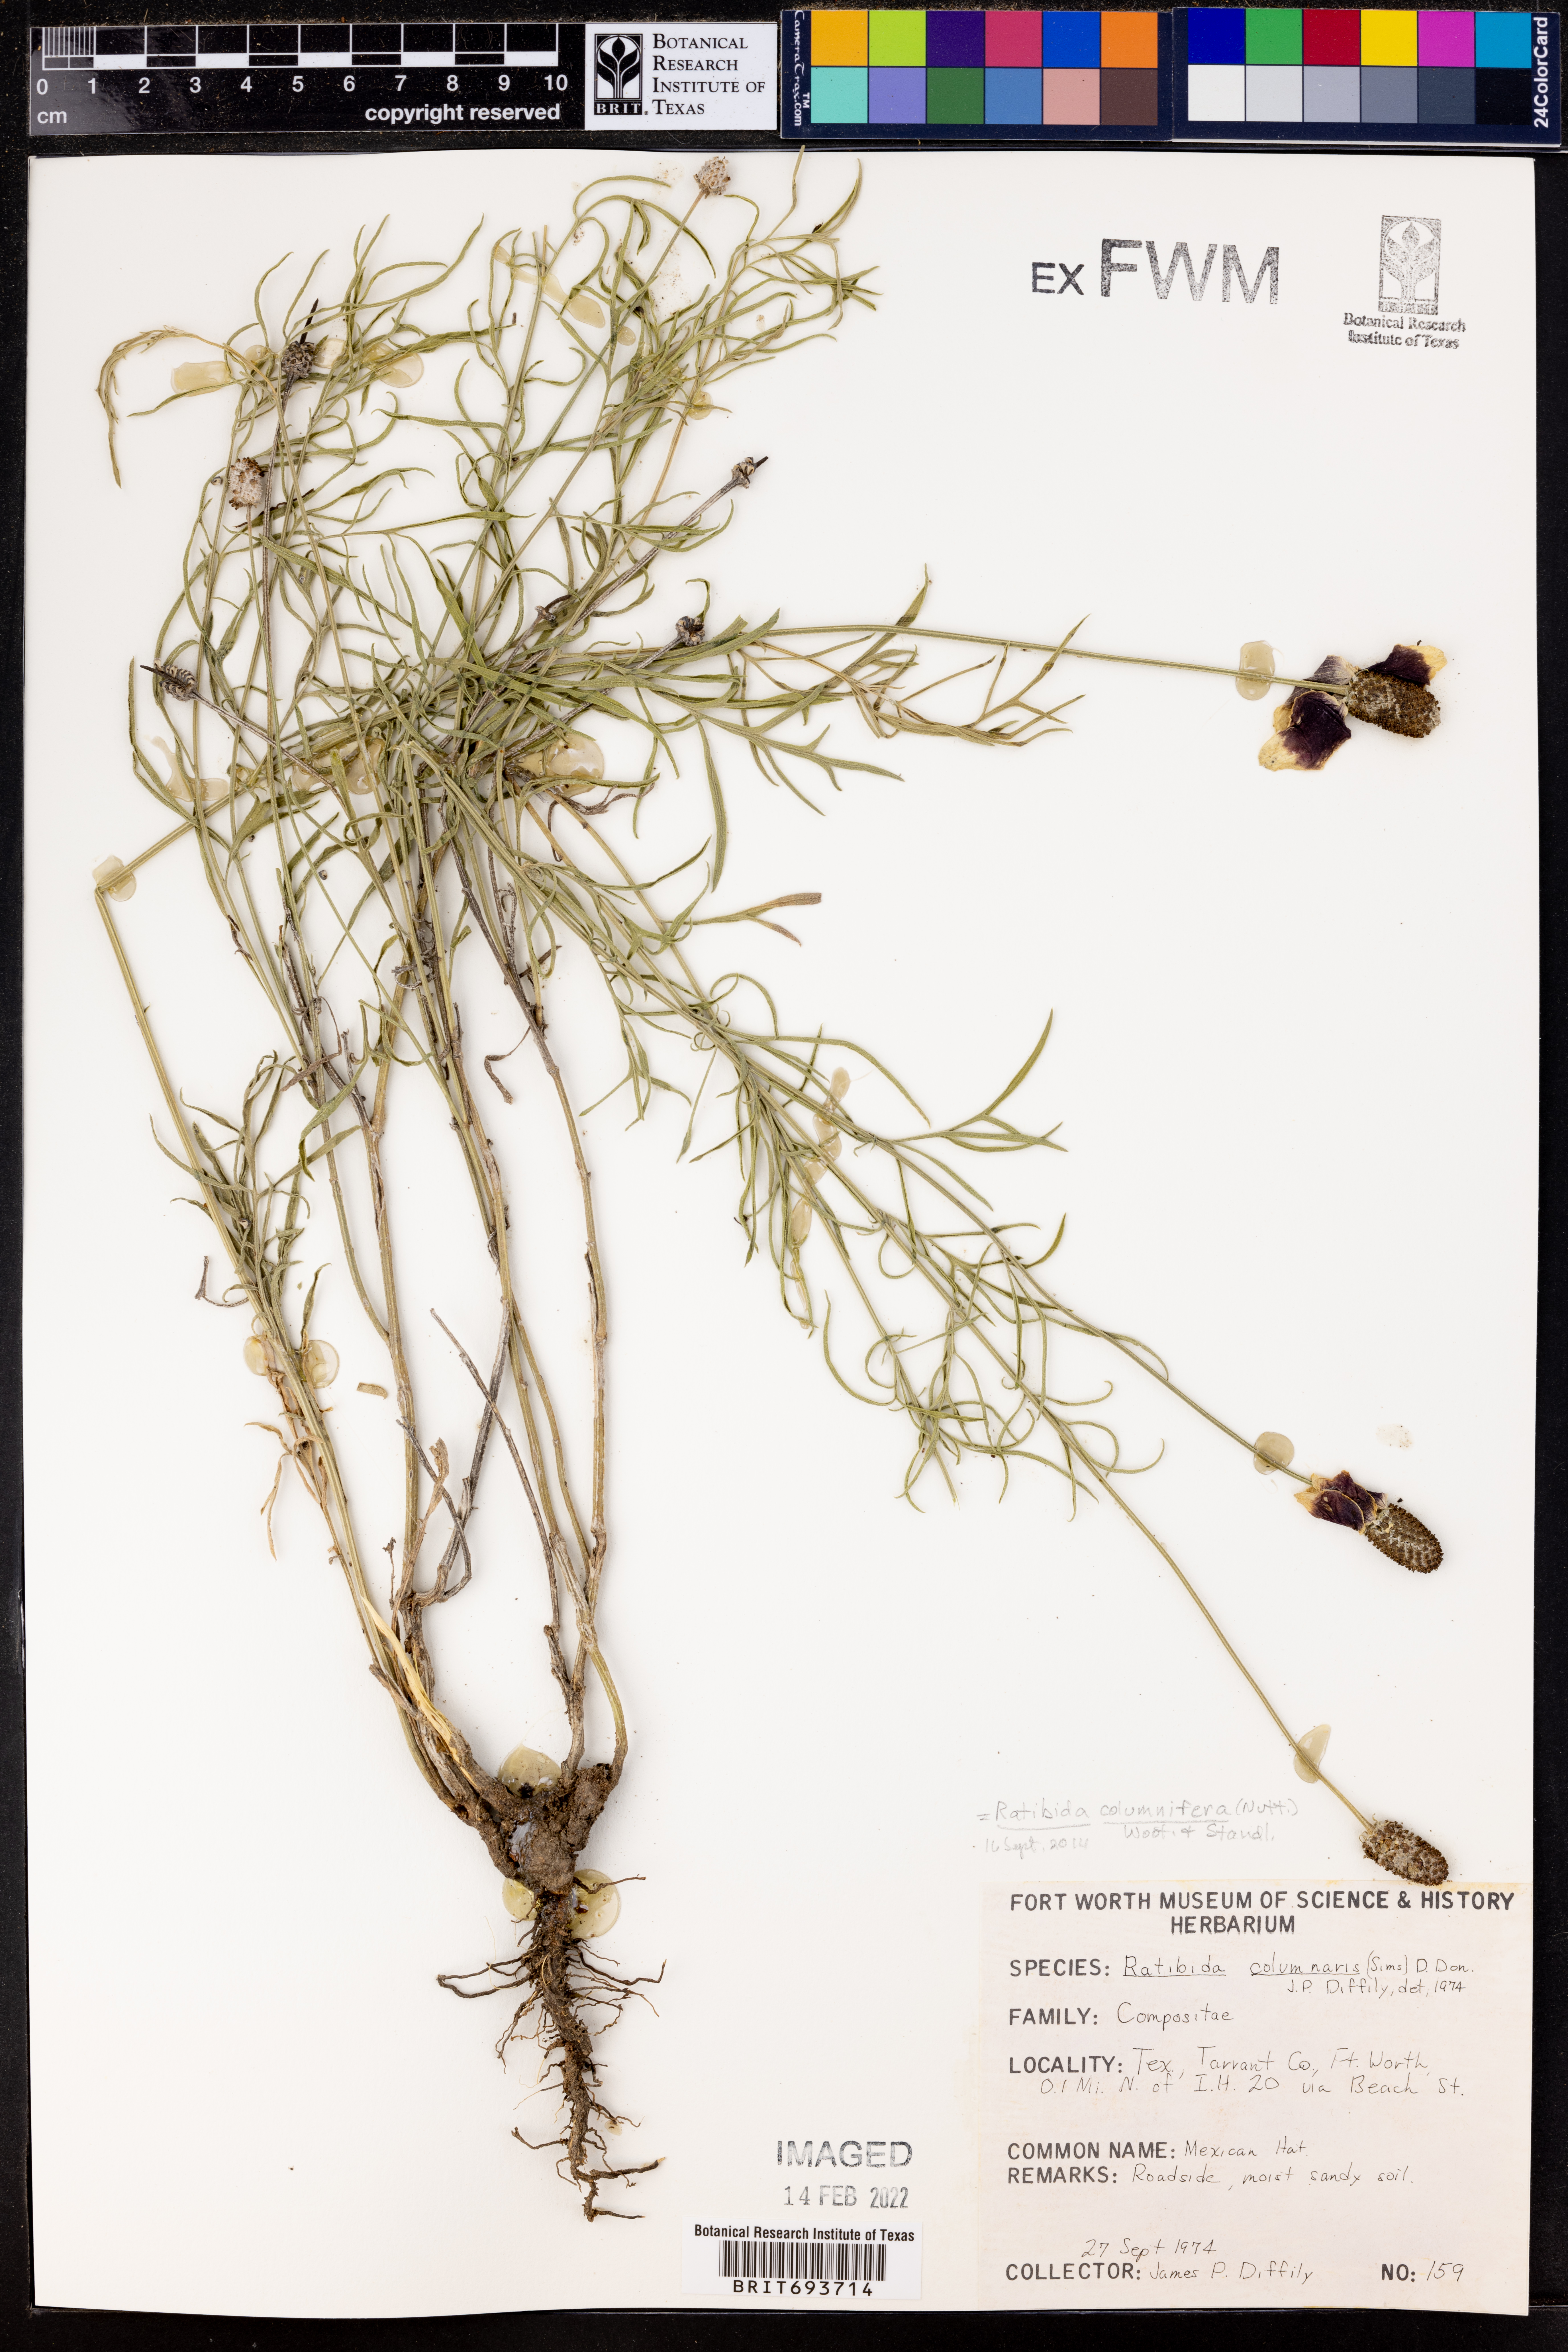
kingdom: Plantae
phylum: Tracheophyta
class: Magnoliopsida
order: Asterales
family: Asteraceae
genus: Ratibida
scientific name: Ratibida columnifera
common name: Prairie coneflower
